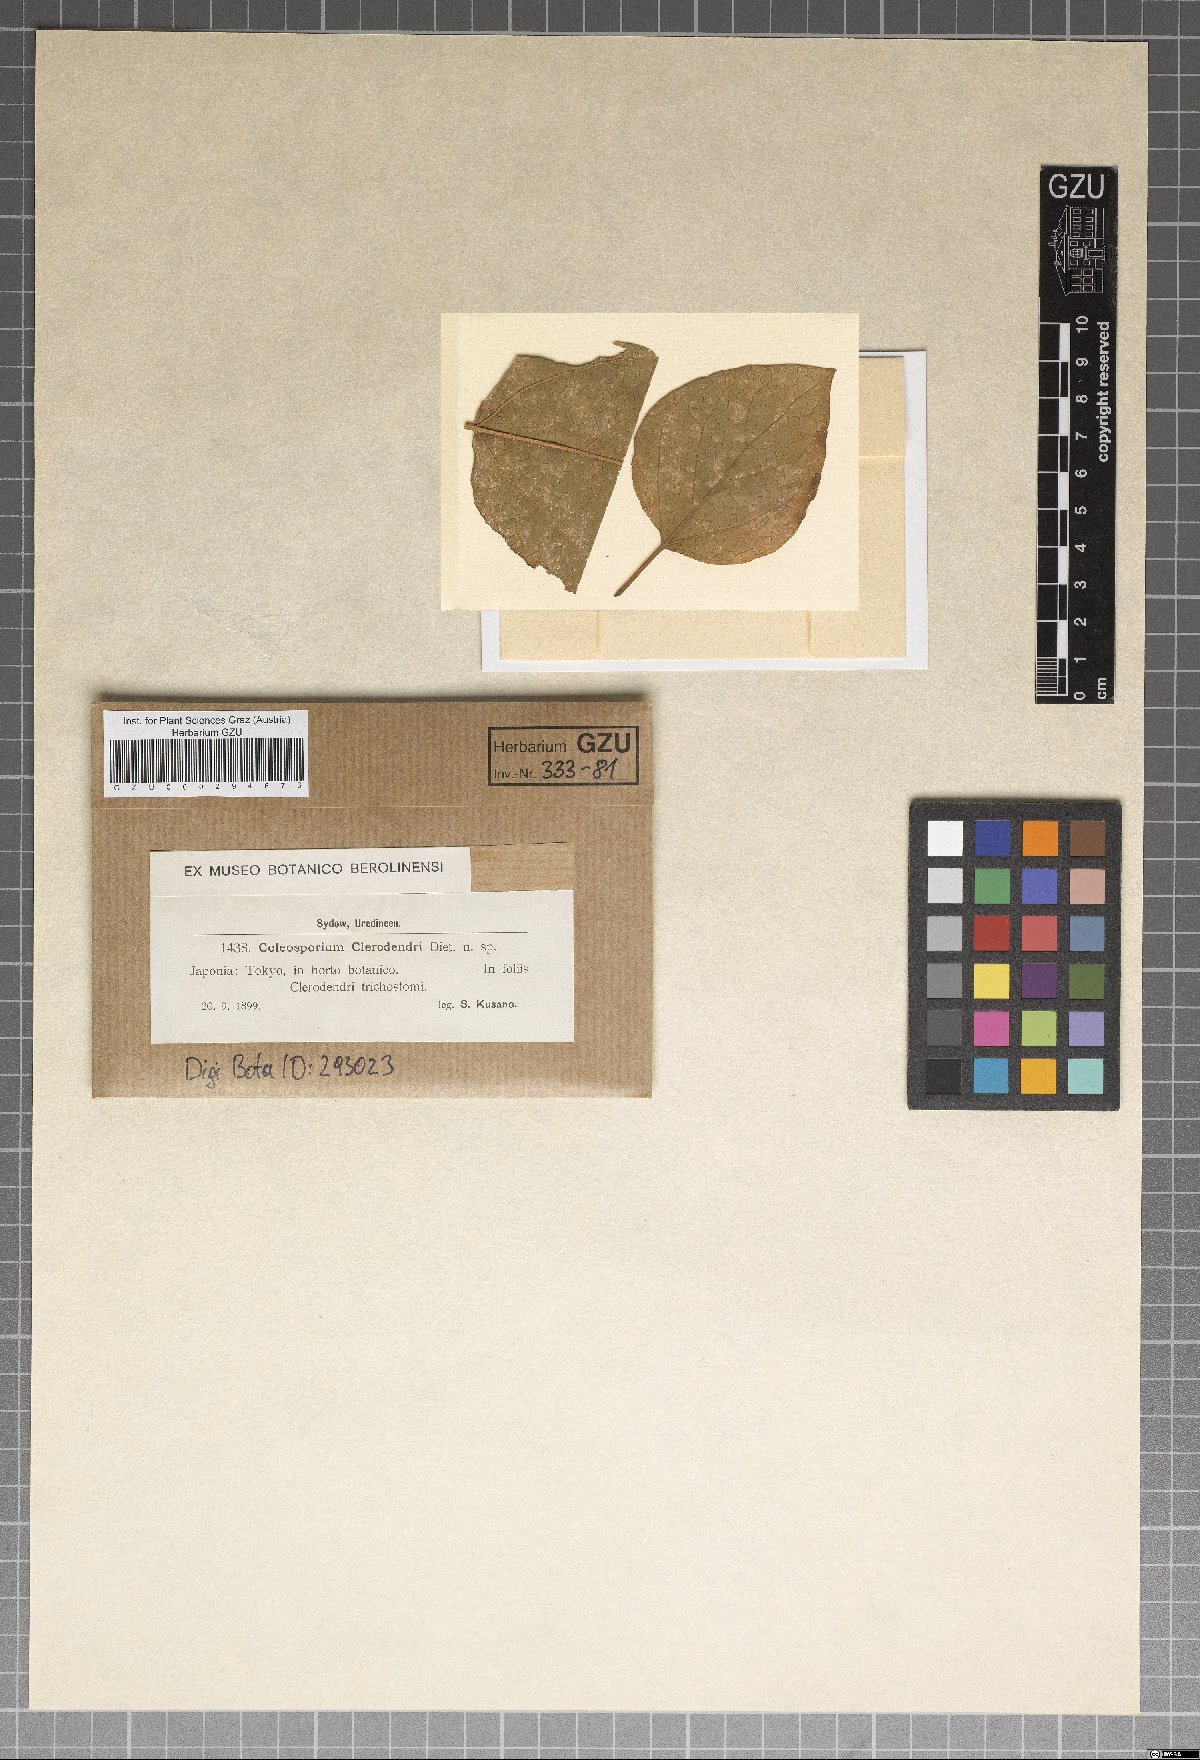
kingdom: Fungi
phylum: Basidiomycota
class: Pucciniomycetes
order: Pucciniales
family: Coleosporiaceae
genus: Coleosporium
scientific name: Coleosporium clerodendri
